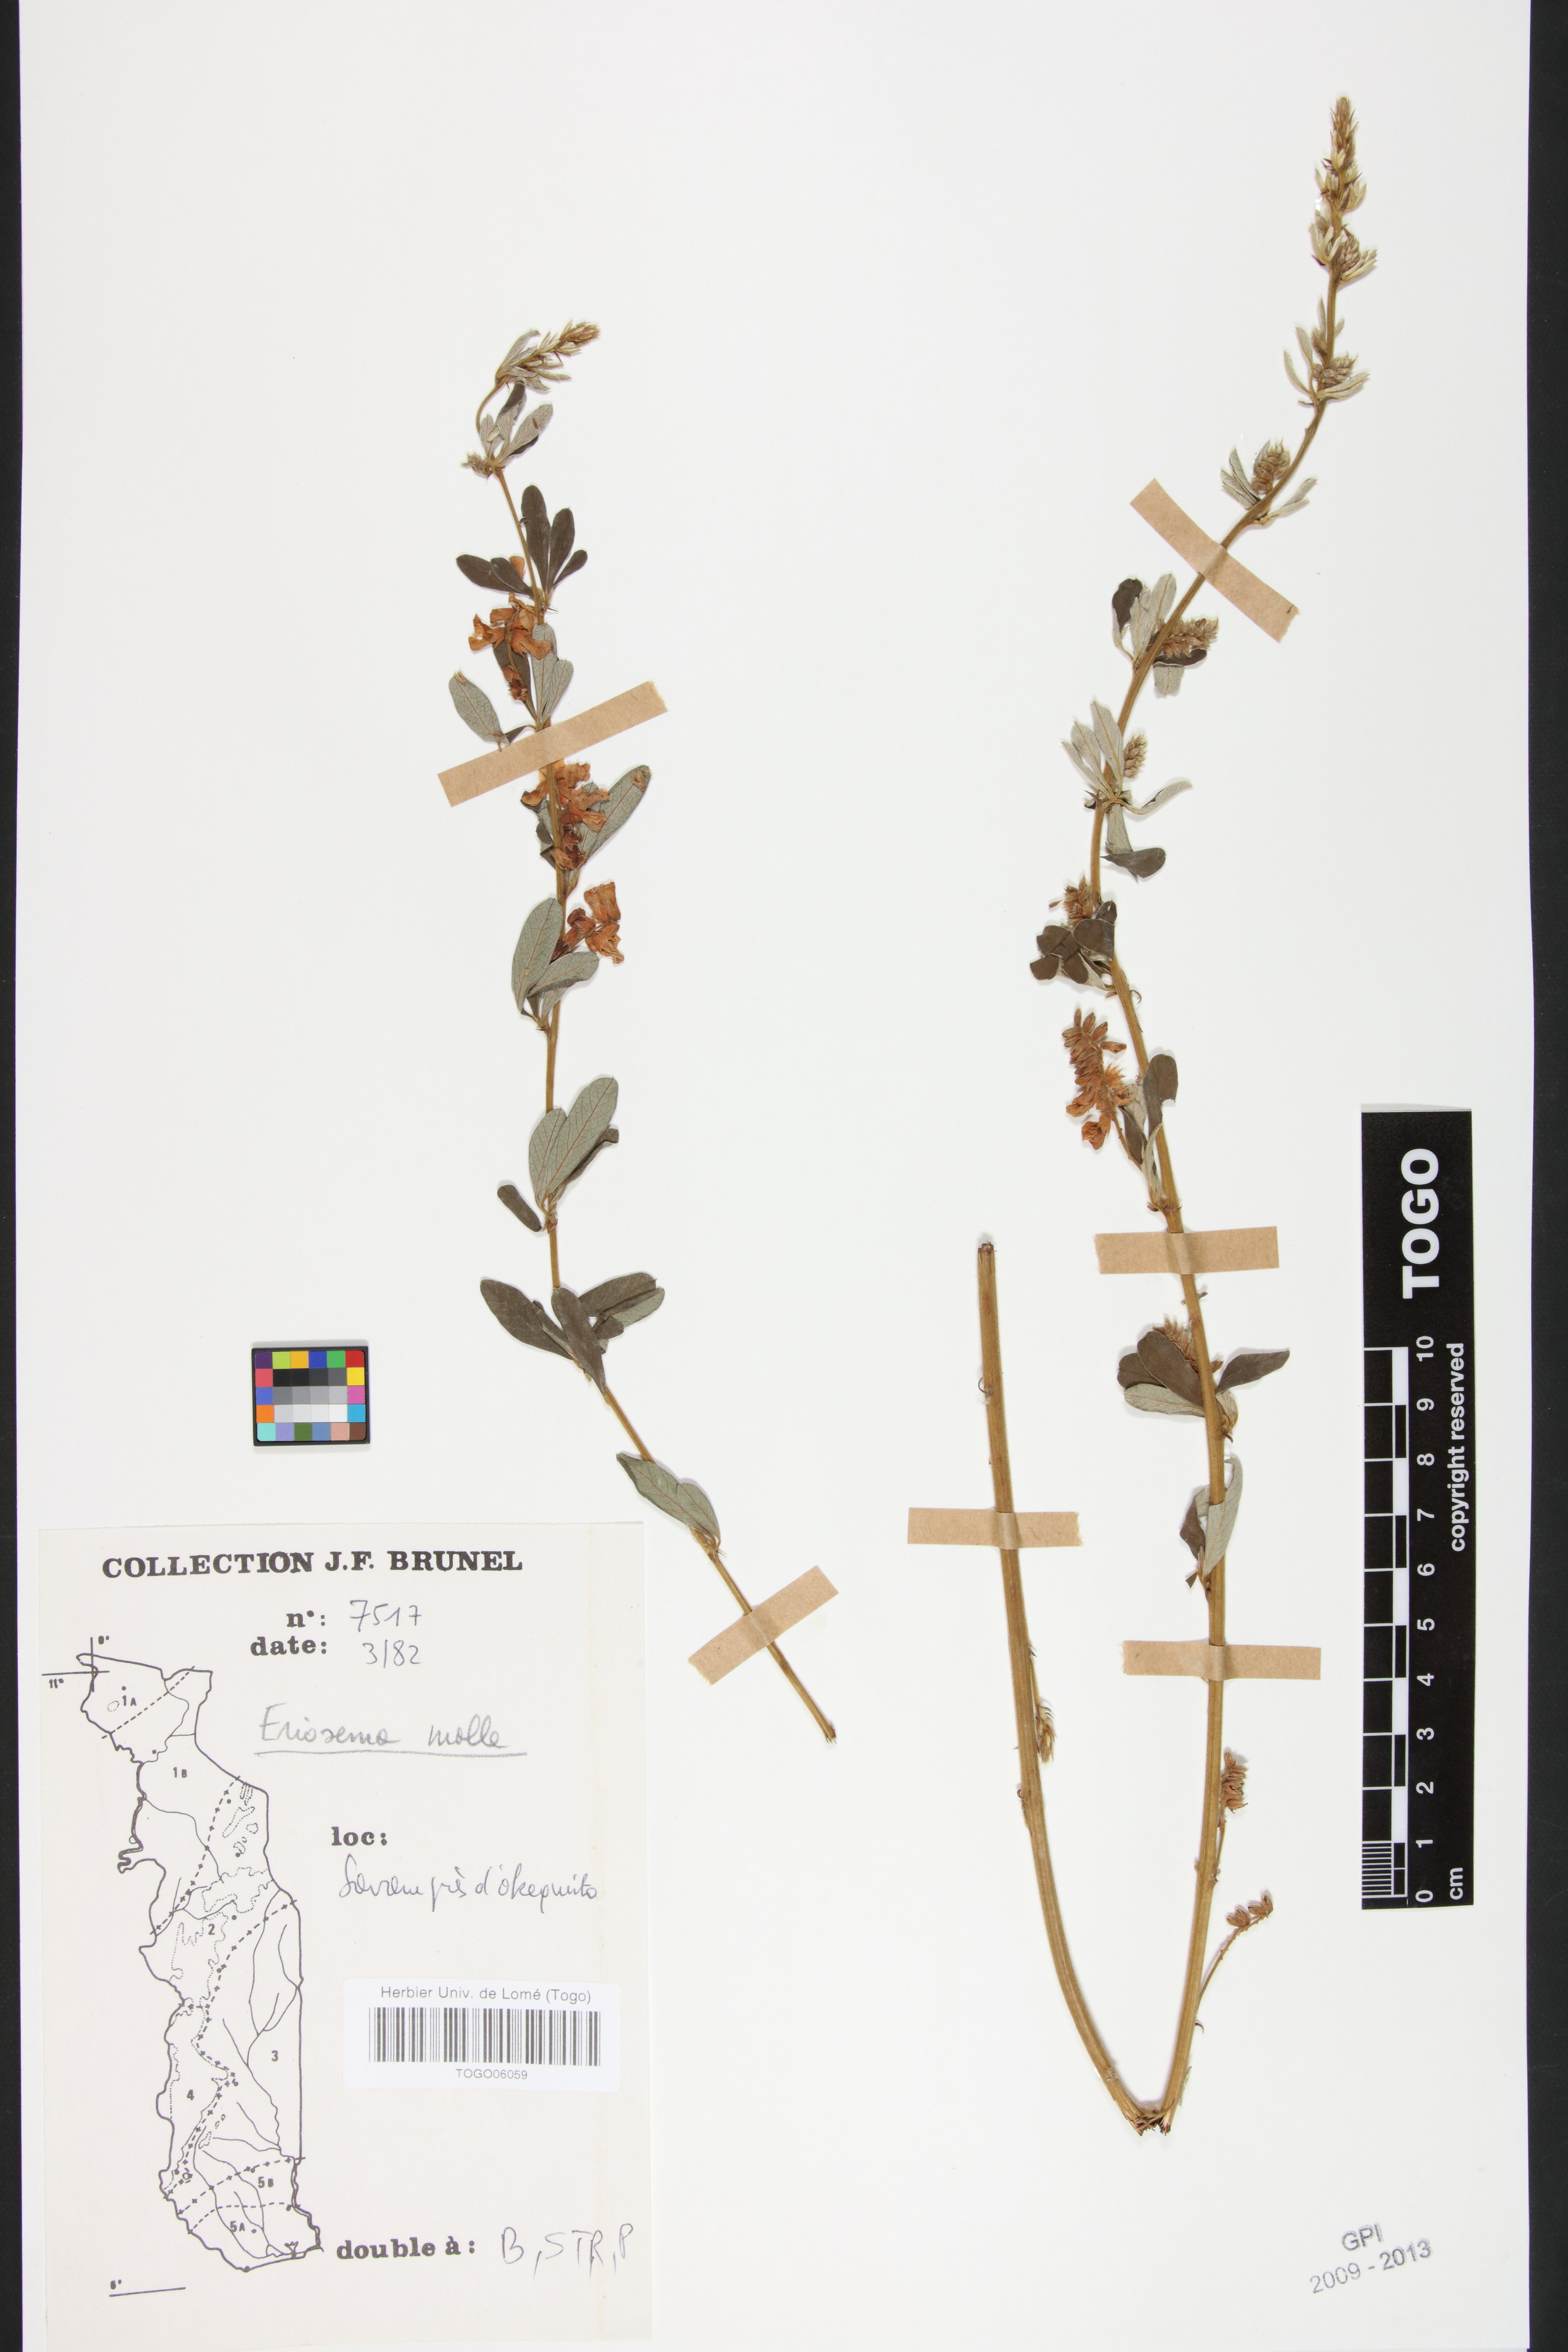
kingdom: Plantae
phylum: Tracheophyta
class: Magnoliopsida
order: Fabales
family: Fabaceae
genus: Eriosema
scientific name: Eriosema molle
